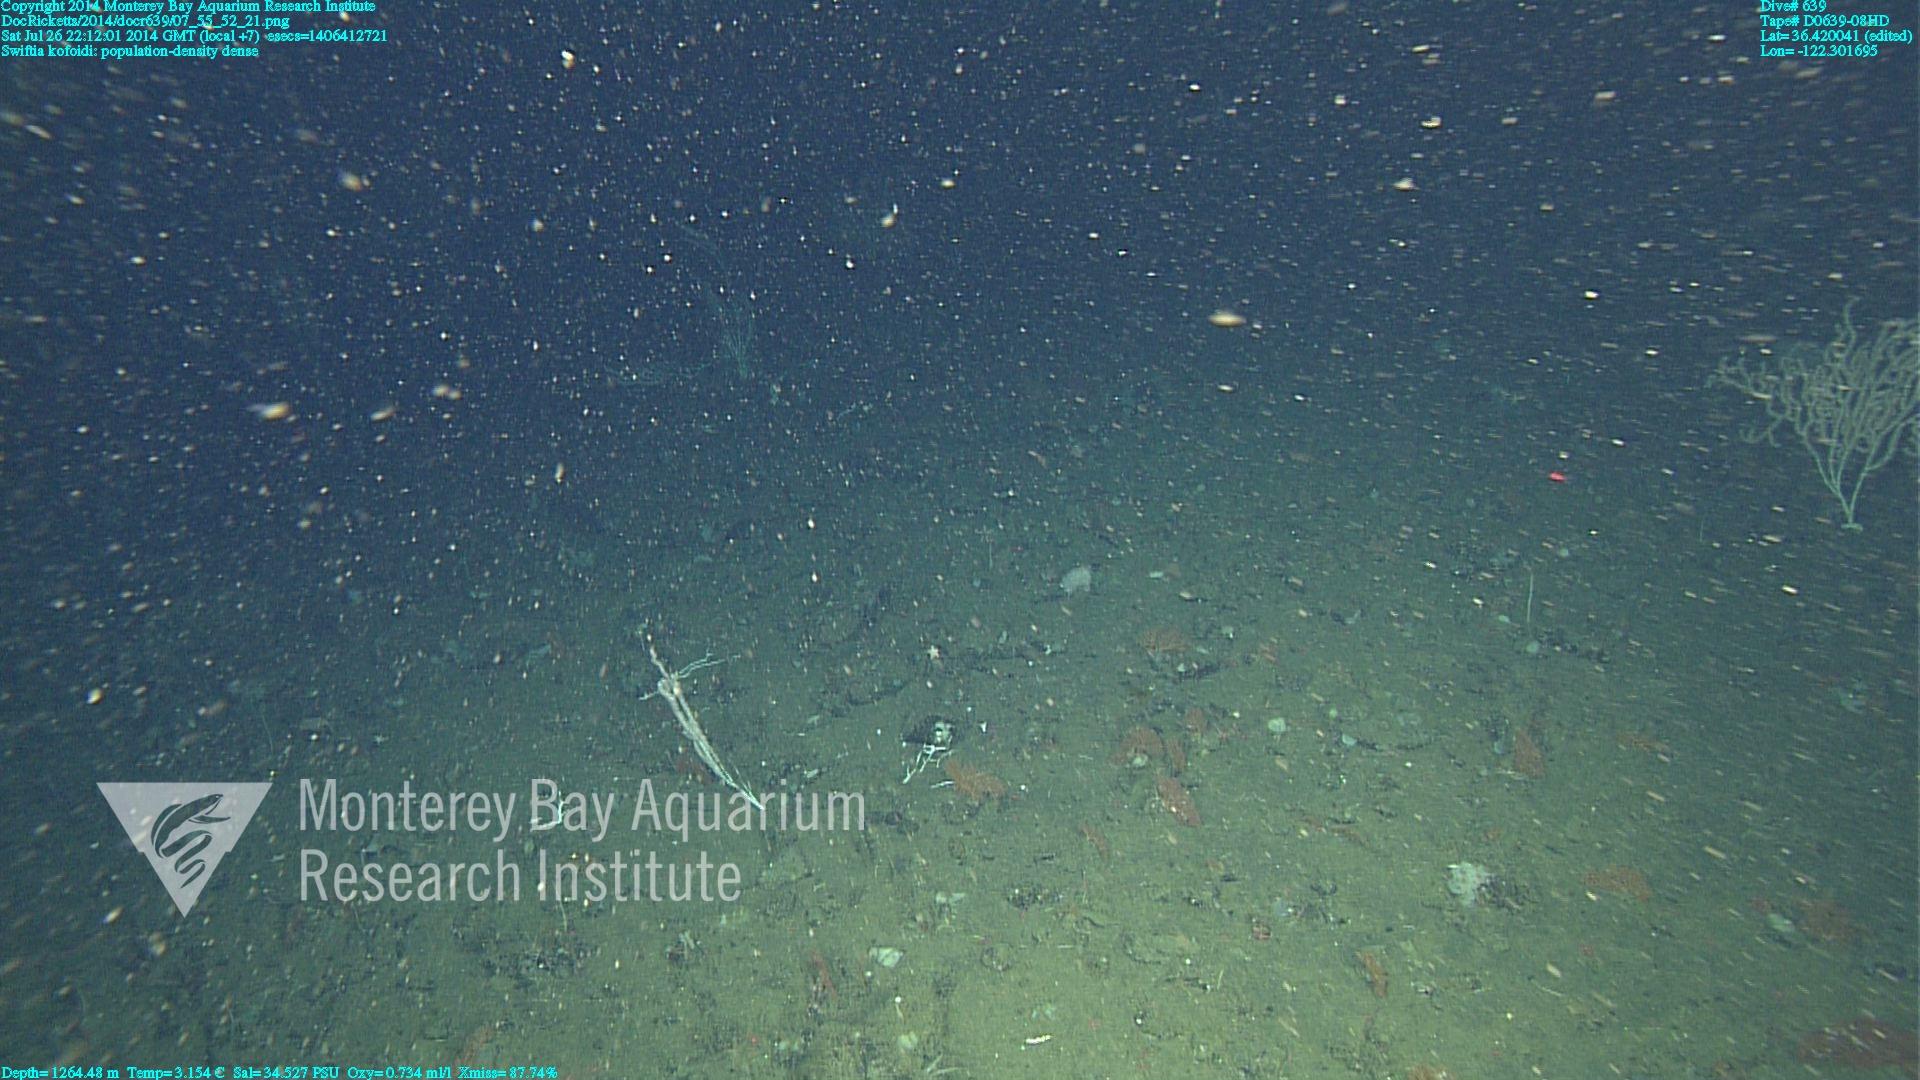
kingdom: Animalia
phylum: Cnidaria
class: Anthozoa
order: Malacalcyonacea
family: Gorgoniidae
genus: Callistephanus
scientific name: Callistephanus kofoidi
